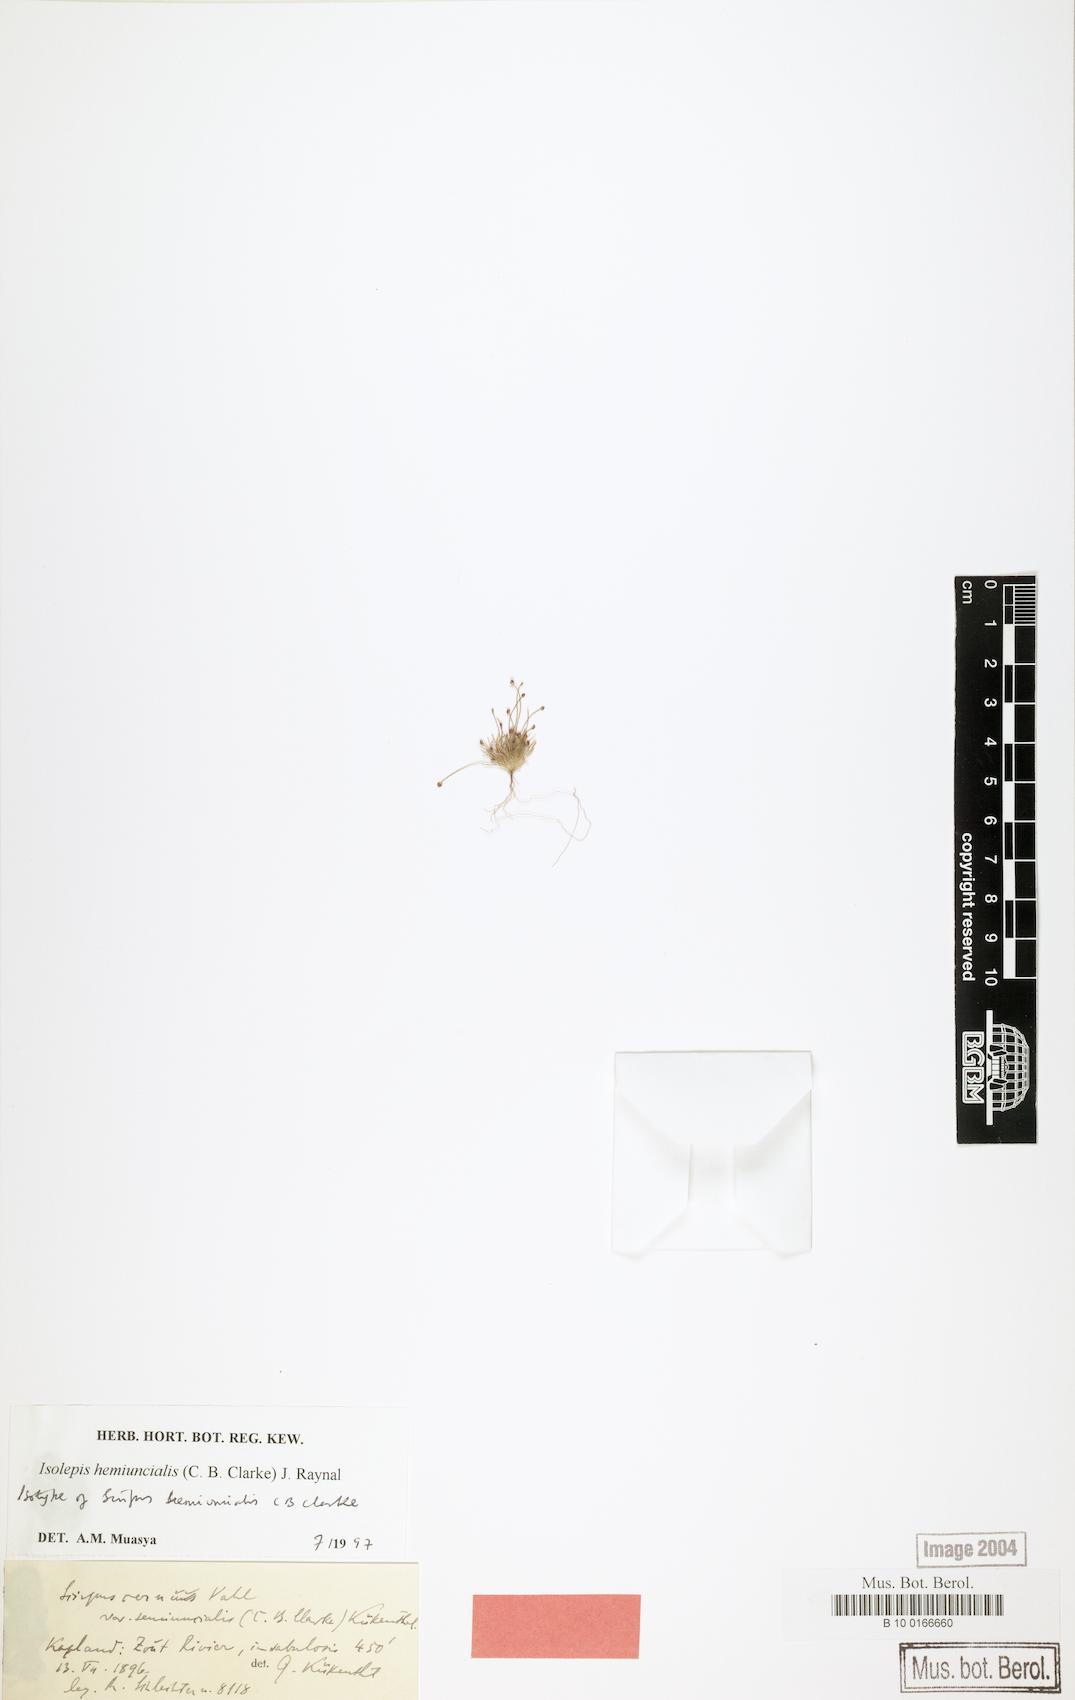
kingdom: Plantae
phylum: Tracheophyta
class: Liliopsida
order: Poales
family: Cyperaceae
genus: Ficinia
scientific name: Ficinia hemiuncialis
